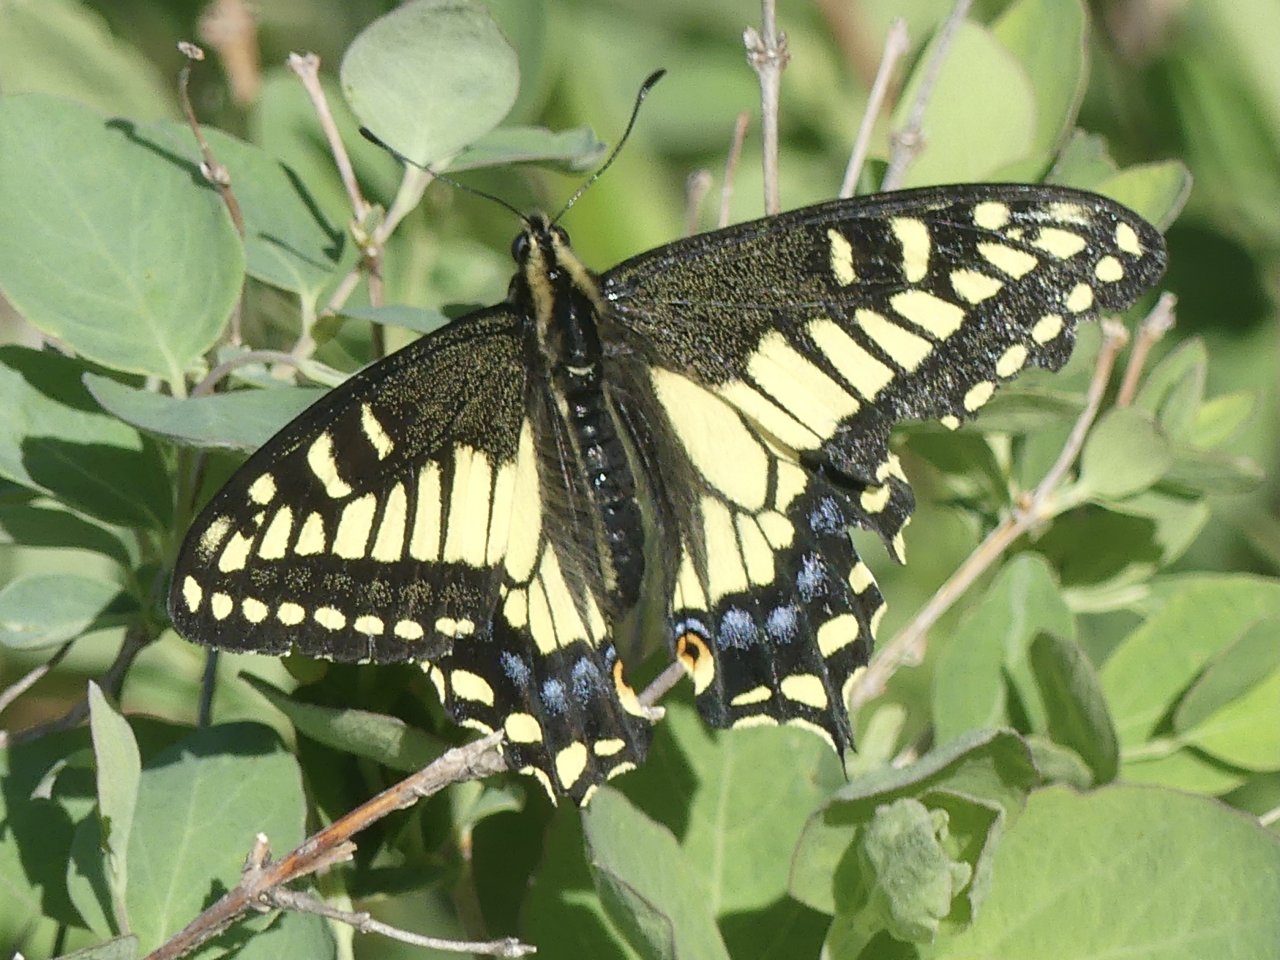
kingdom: Animalia
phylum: Arthropoda
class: Insecta
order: Lepidoptera
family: Papilionidae
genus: Papilio
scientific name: Papilio zelicaon
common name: Anise Swallowtail
